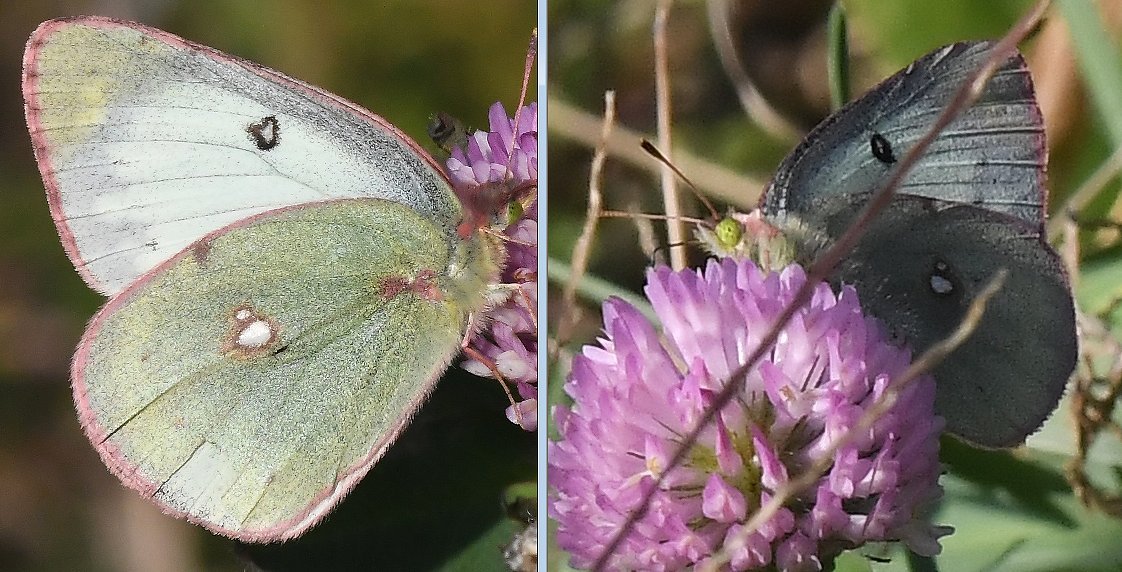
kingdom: Animalia
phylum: Arthropoda
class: Insecta
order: Lepidoptera
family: Pieridae
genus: Colias
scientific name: Colias philodice
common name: Clouded Sulphur
